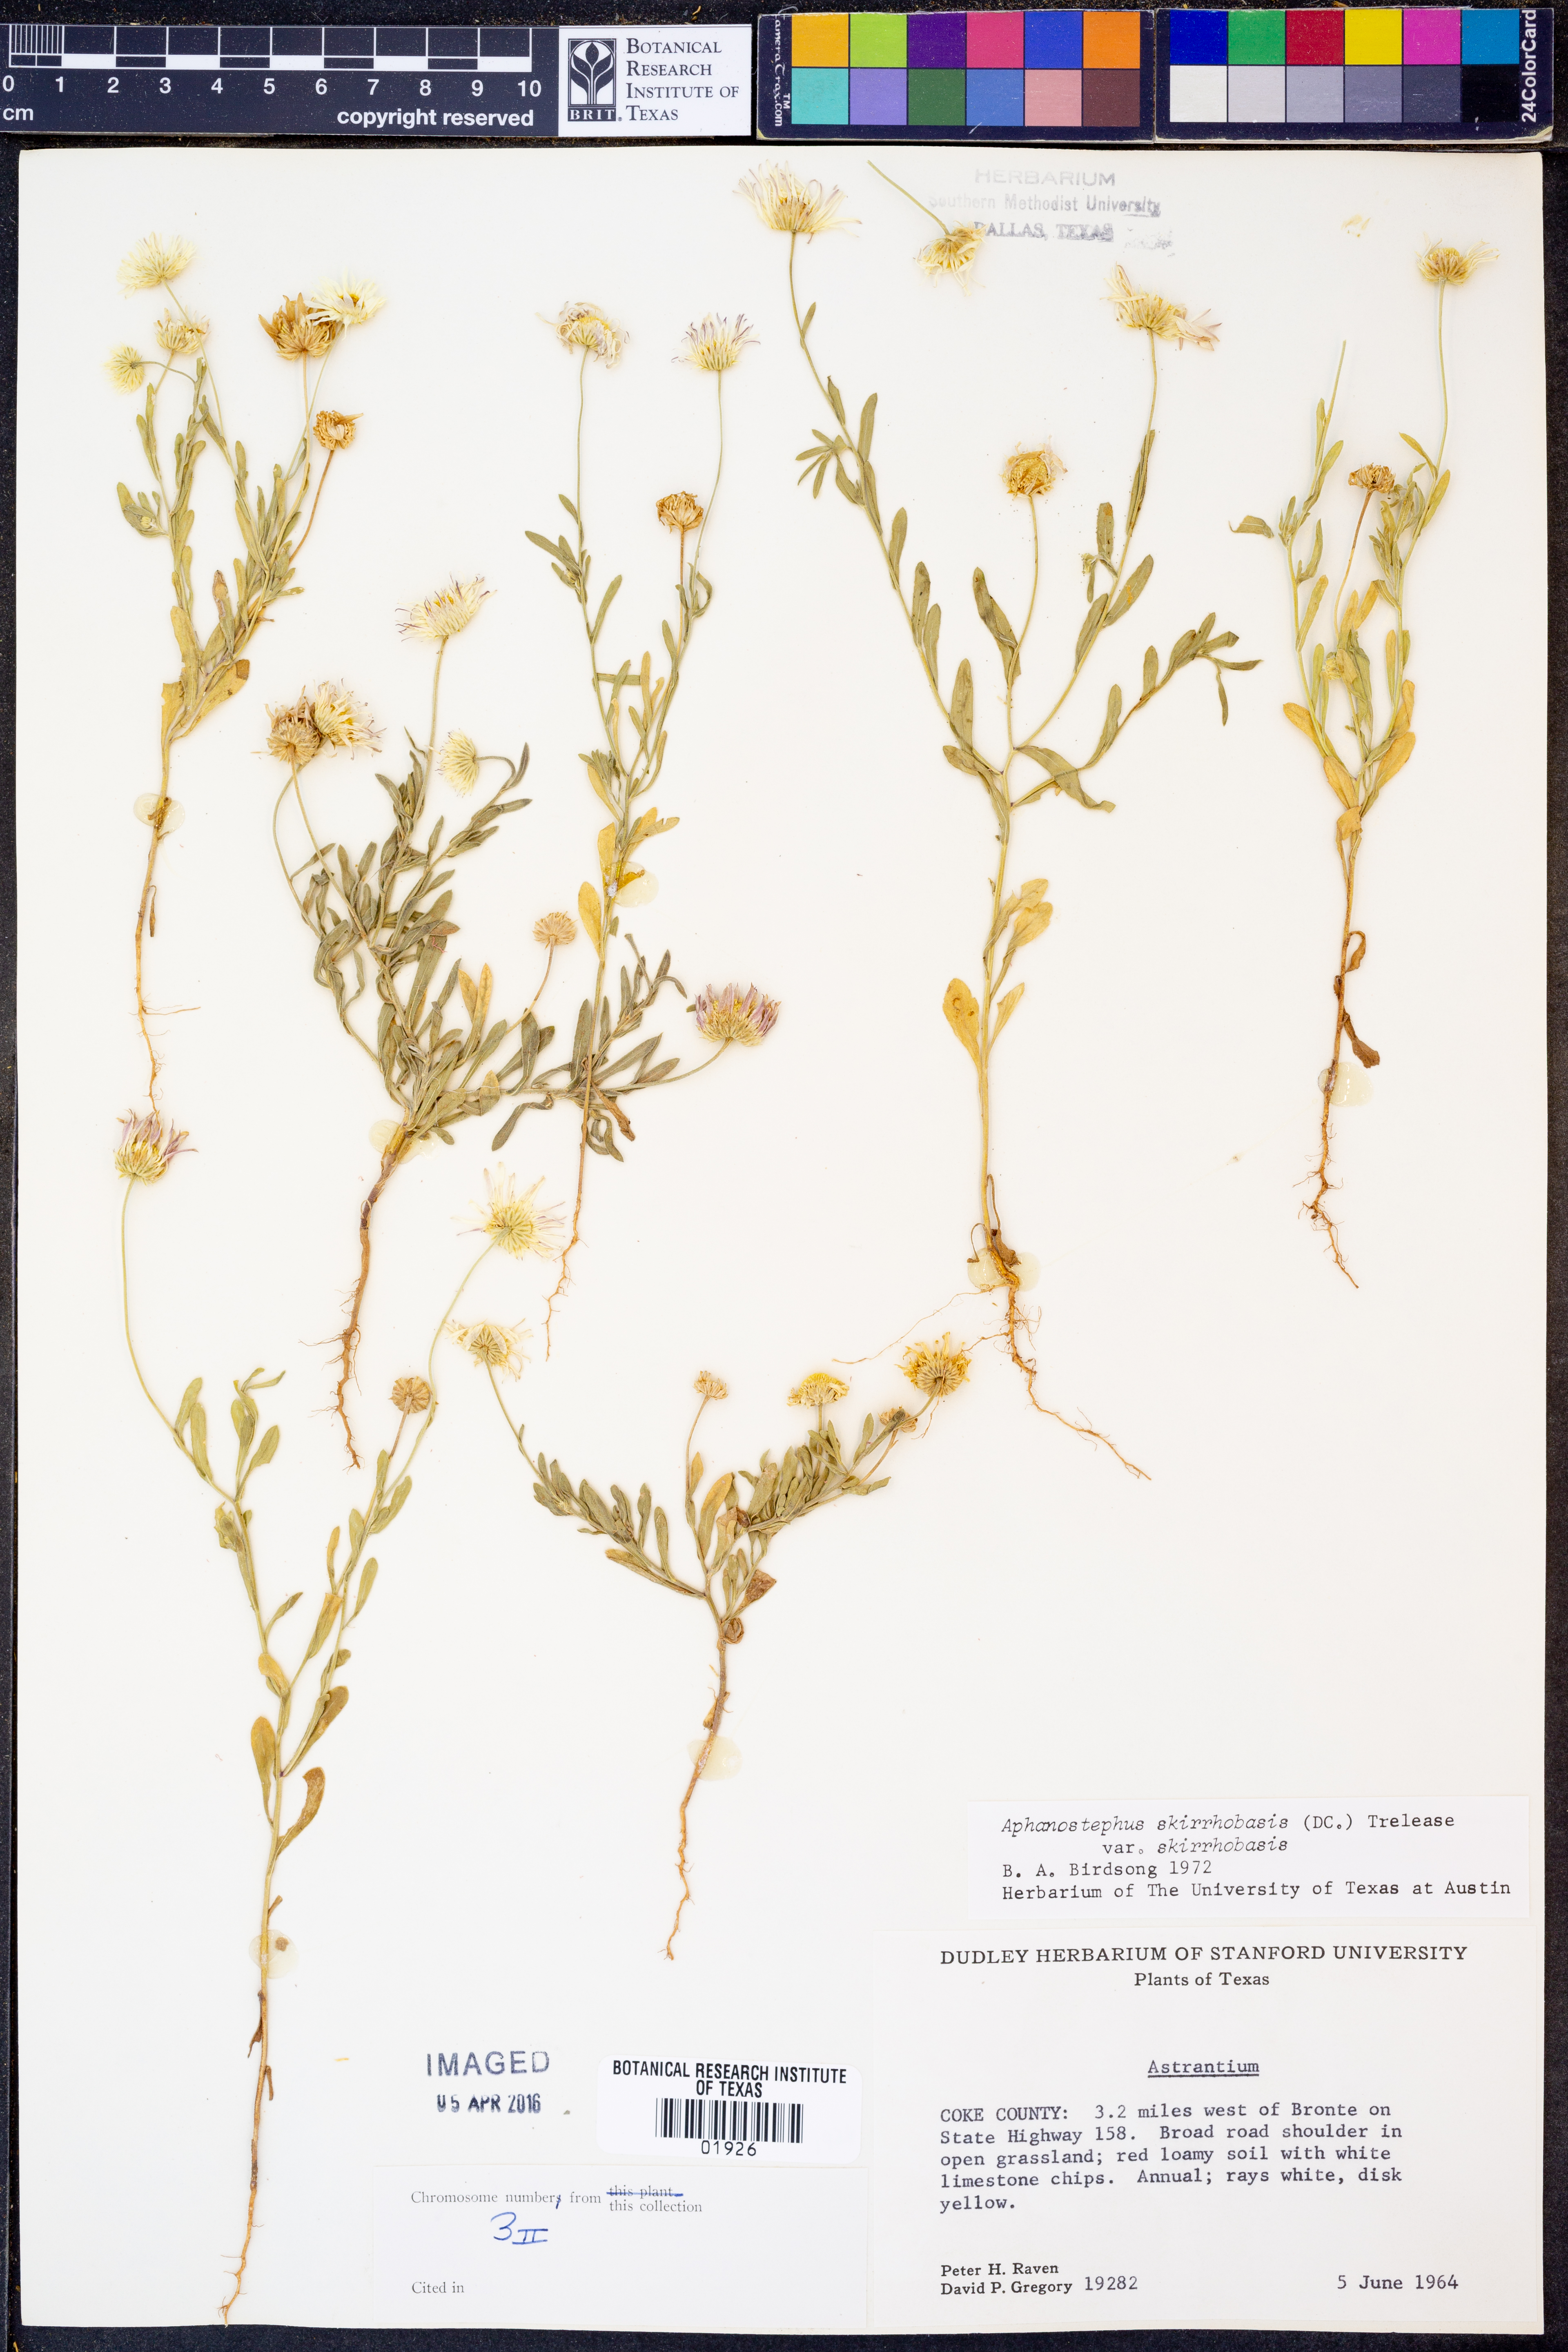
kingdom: Plantae
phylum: Tracheophyta
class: Magnoliopsida
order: Asterales
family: Asteraceae
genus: Aphanostephus
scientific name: Aphanostephus skirrhobasis
